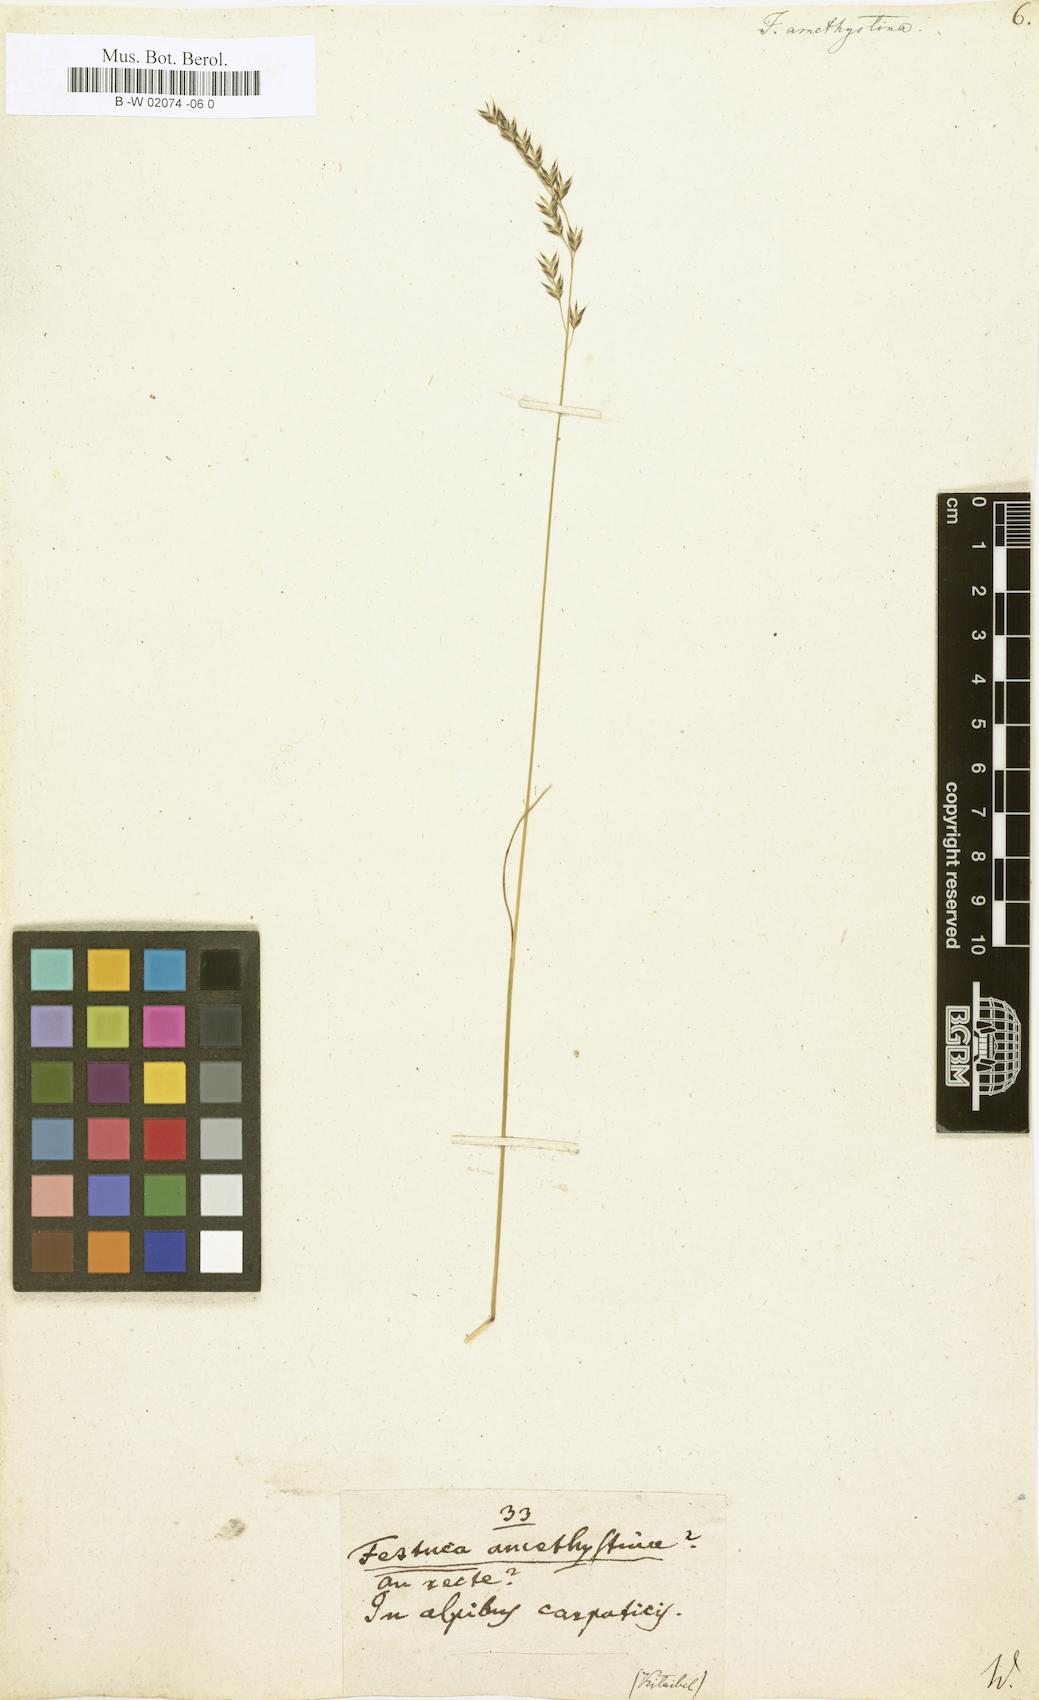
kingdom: Plantae
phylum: Tracheophyta
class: Liliopsida
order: Poales
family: Poaceae
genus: Festuca
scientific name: Festuca amethystina
